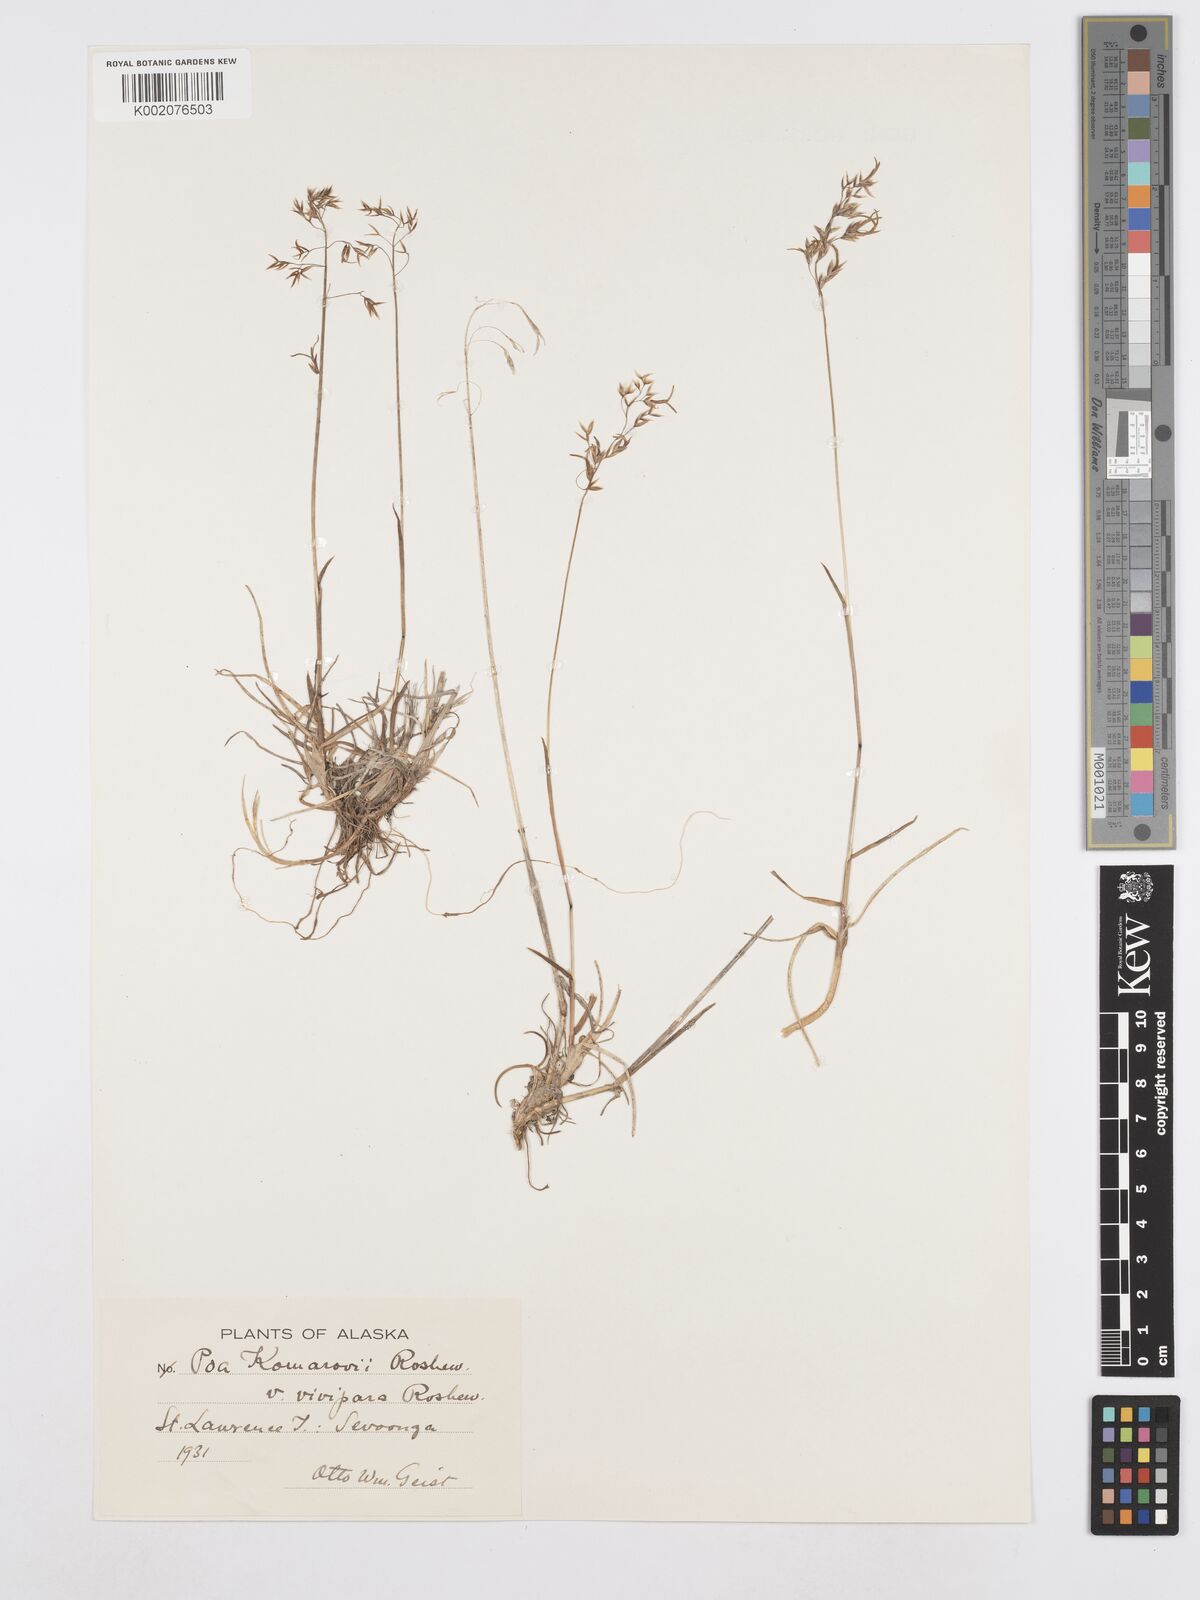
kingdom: Plantae
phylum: Tracheophyta
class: Liliopsida
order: Poales
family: Poaceae
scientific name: Poaceae
